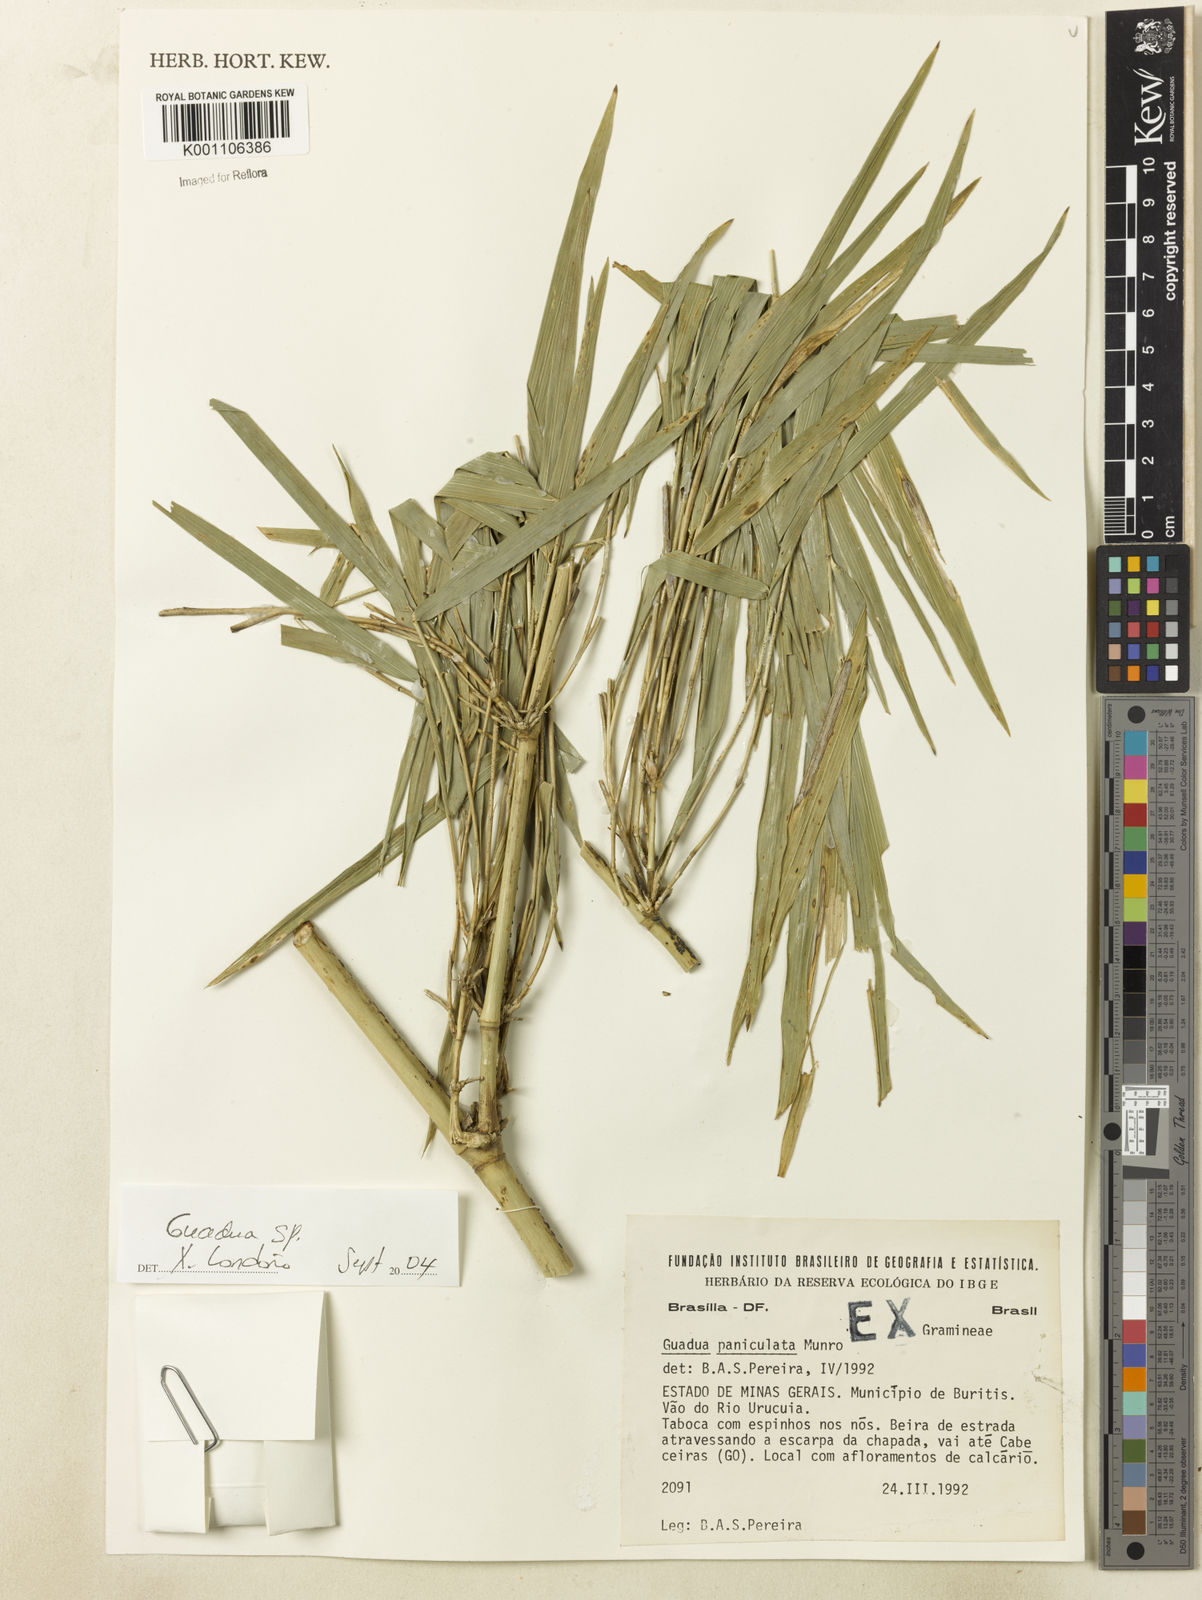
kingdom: Plantae
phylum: Tracheophyta
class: Liliopsida
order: Poales
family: Poaceae
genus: Guadua
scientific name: Guadua paniculata
